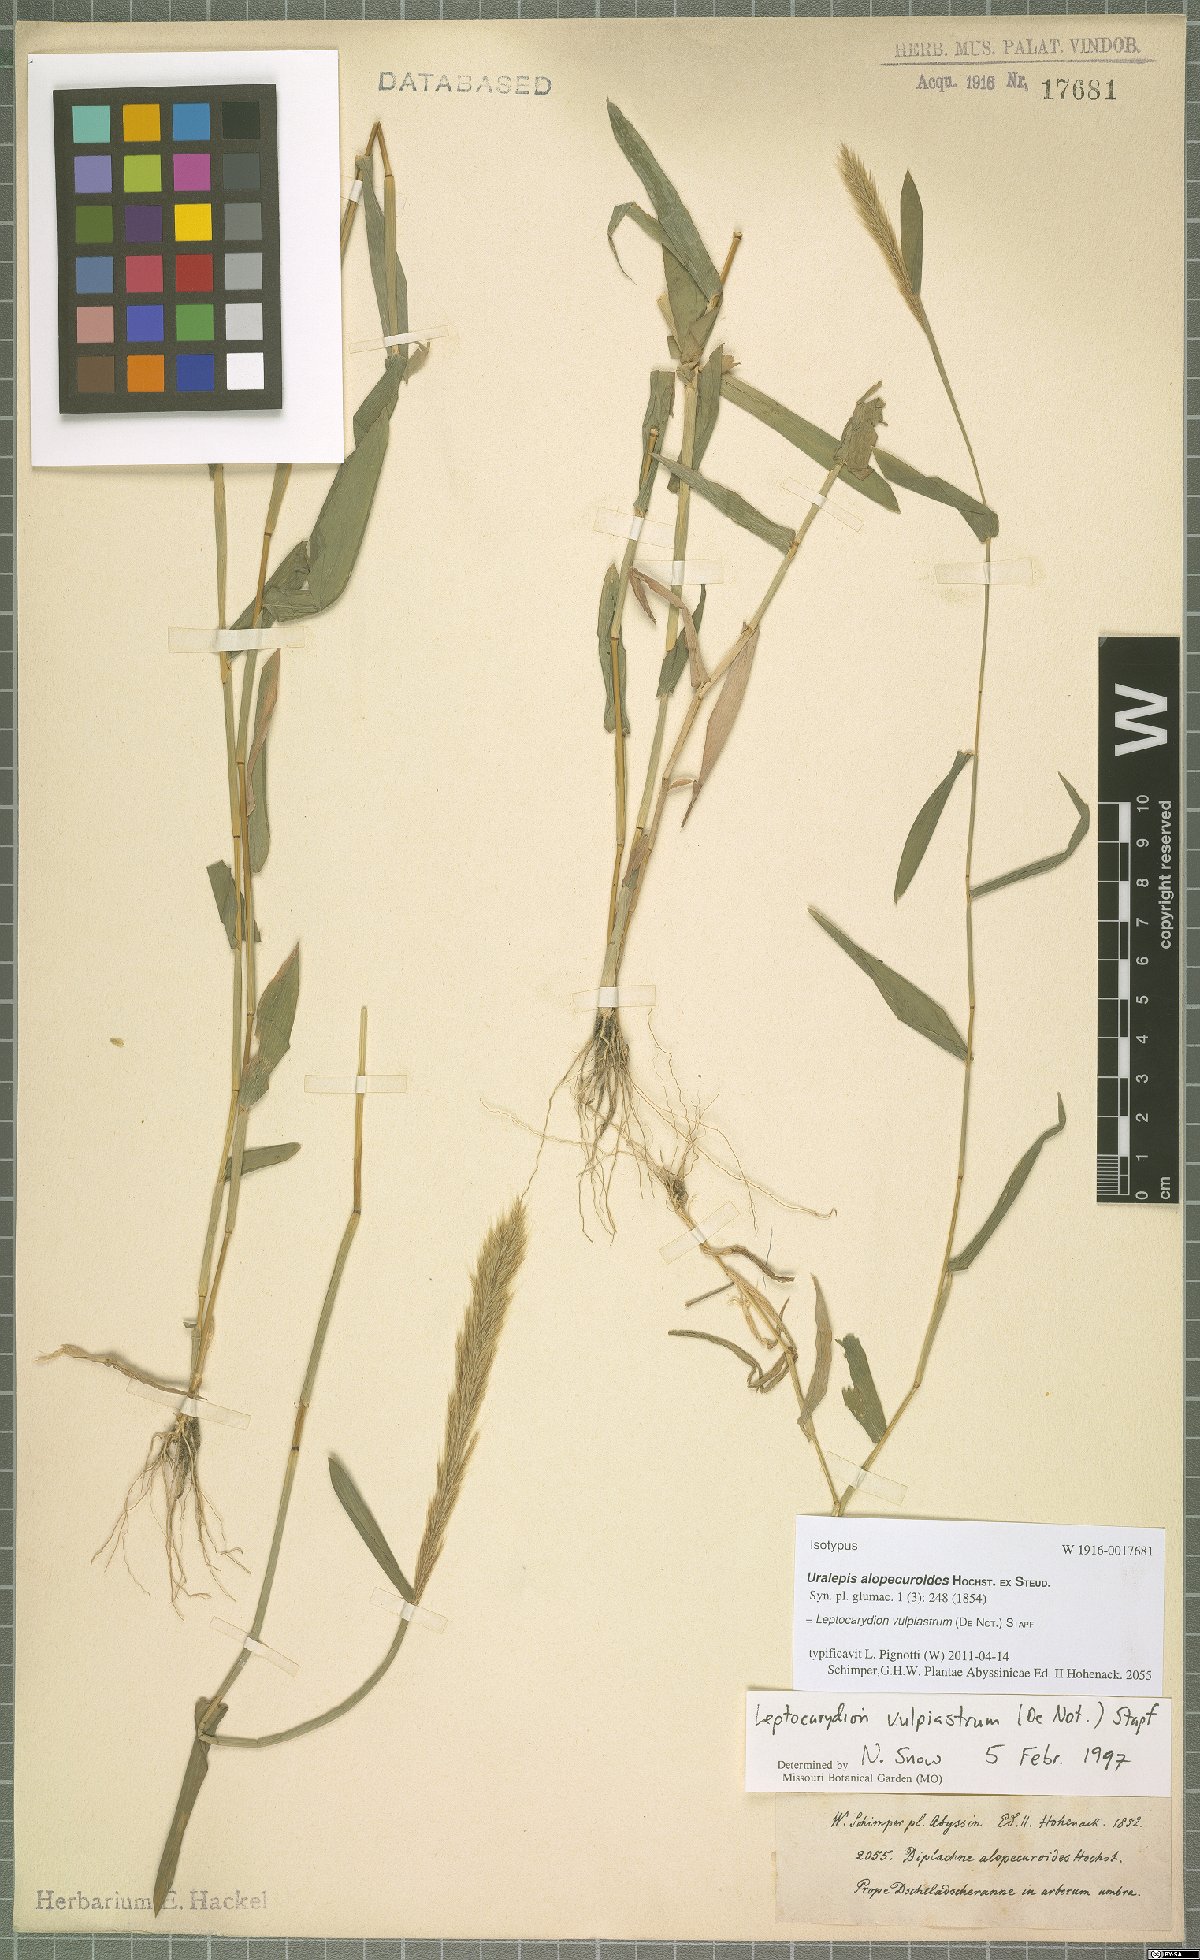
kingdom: Plantae
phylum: Tracheophyta
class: Liliopsida
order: Poales
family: Poaceae
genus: Leptocarydion
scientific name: Leptocarydion vulpiastrum
